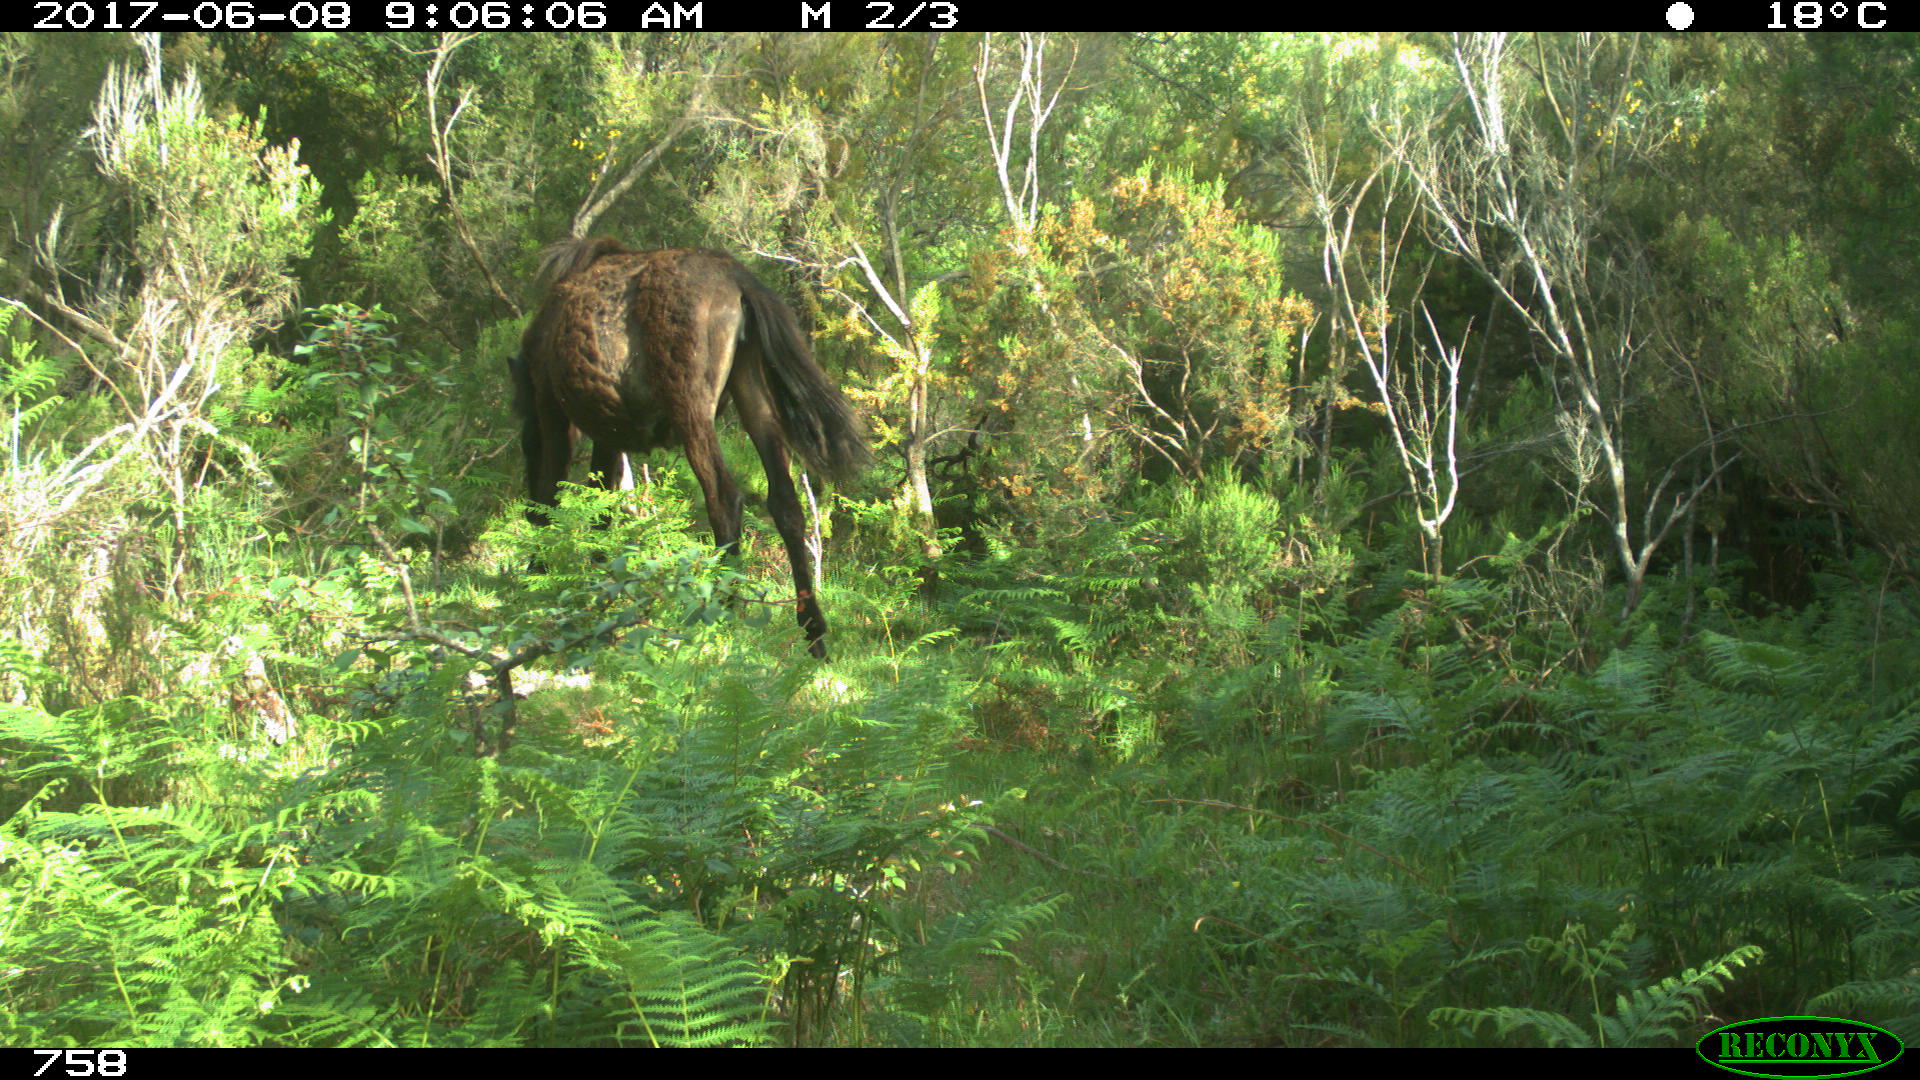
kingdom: Animalia
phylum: Chordata
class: Mammalia
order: Perissodactyla
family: Equidae
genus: Equus
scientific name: Equus caballus
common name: Horse
